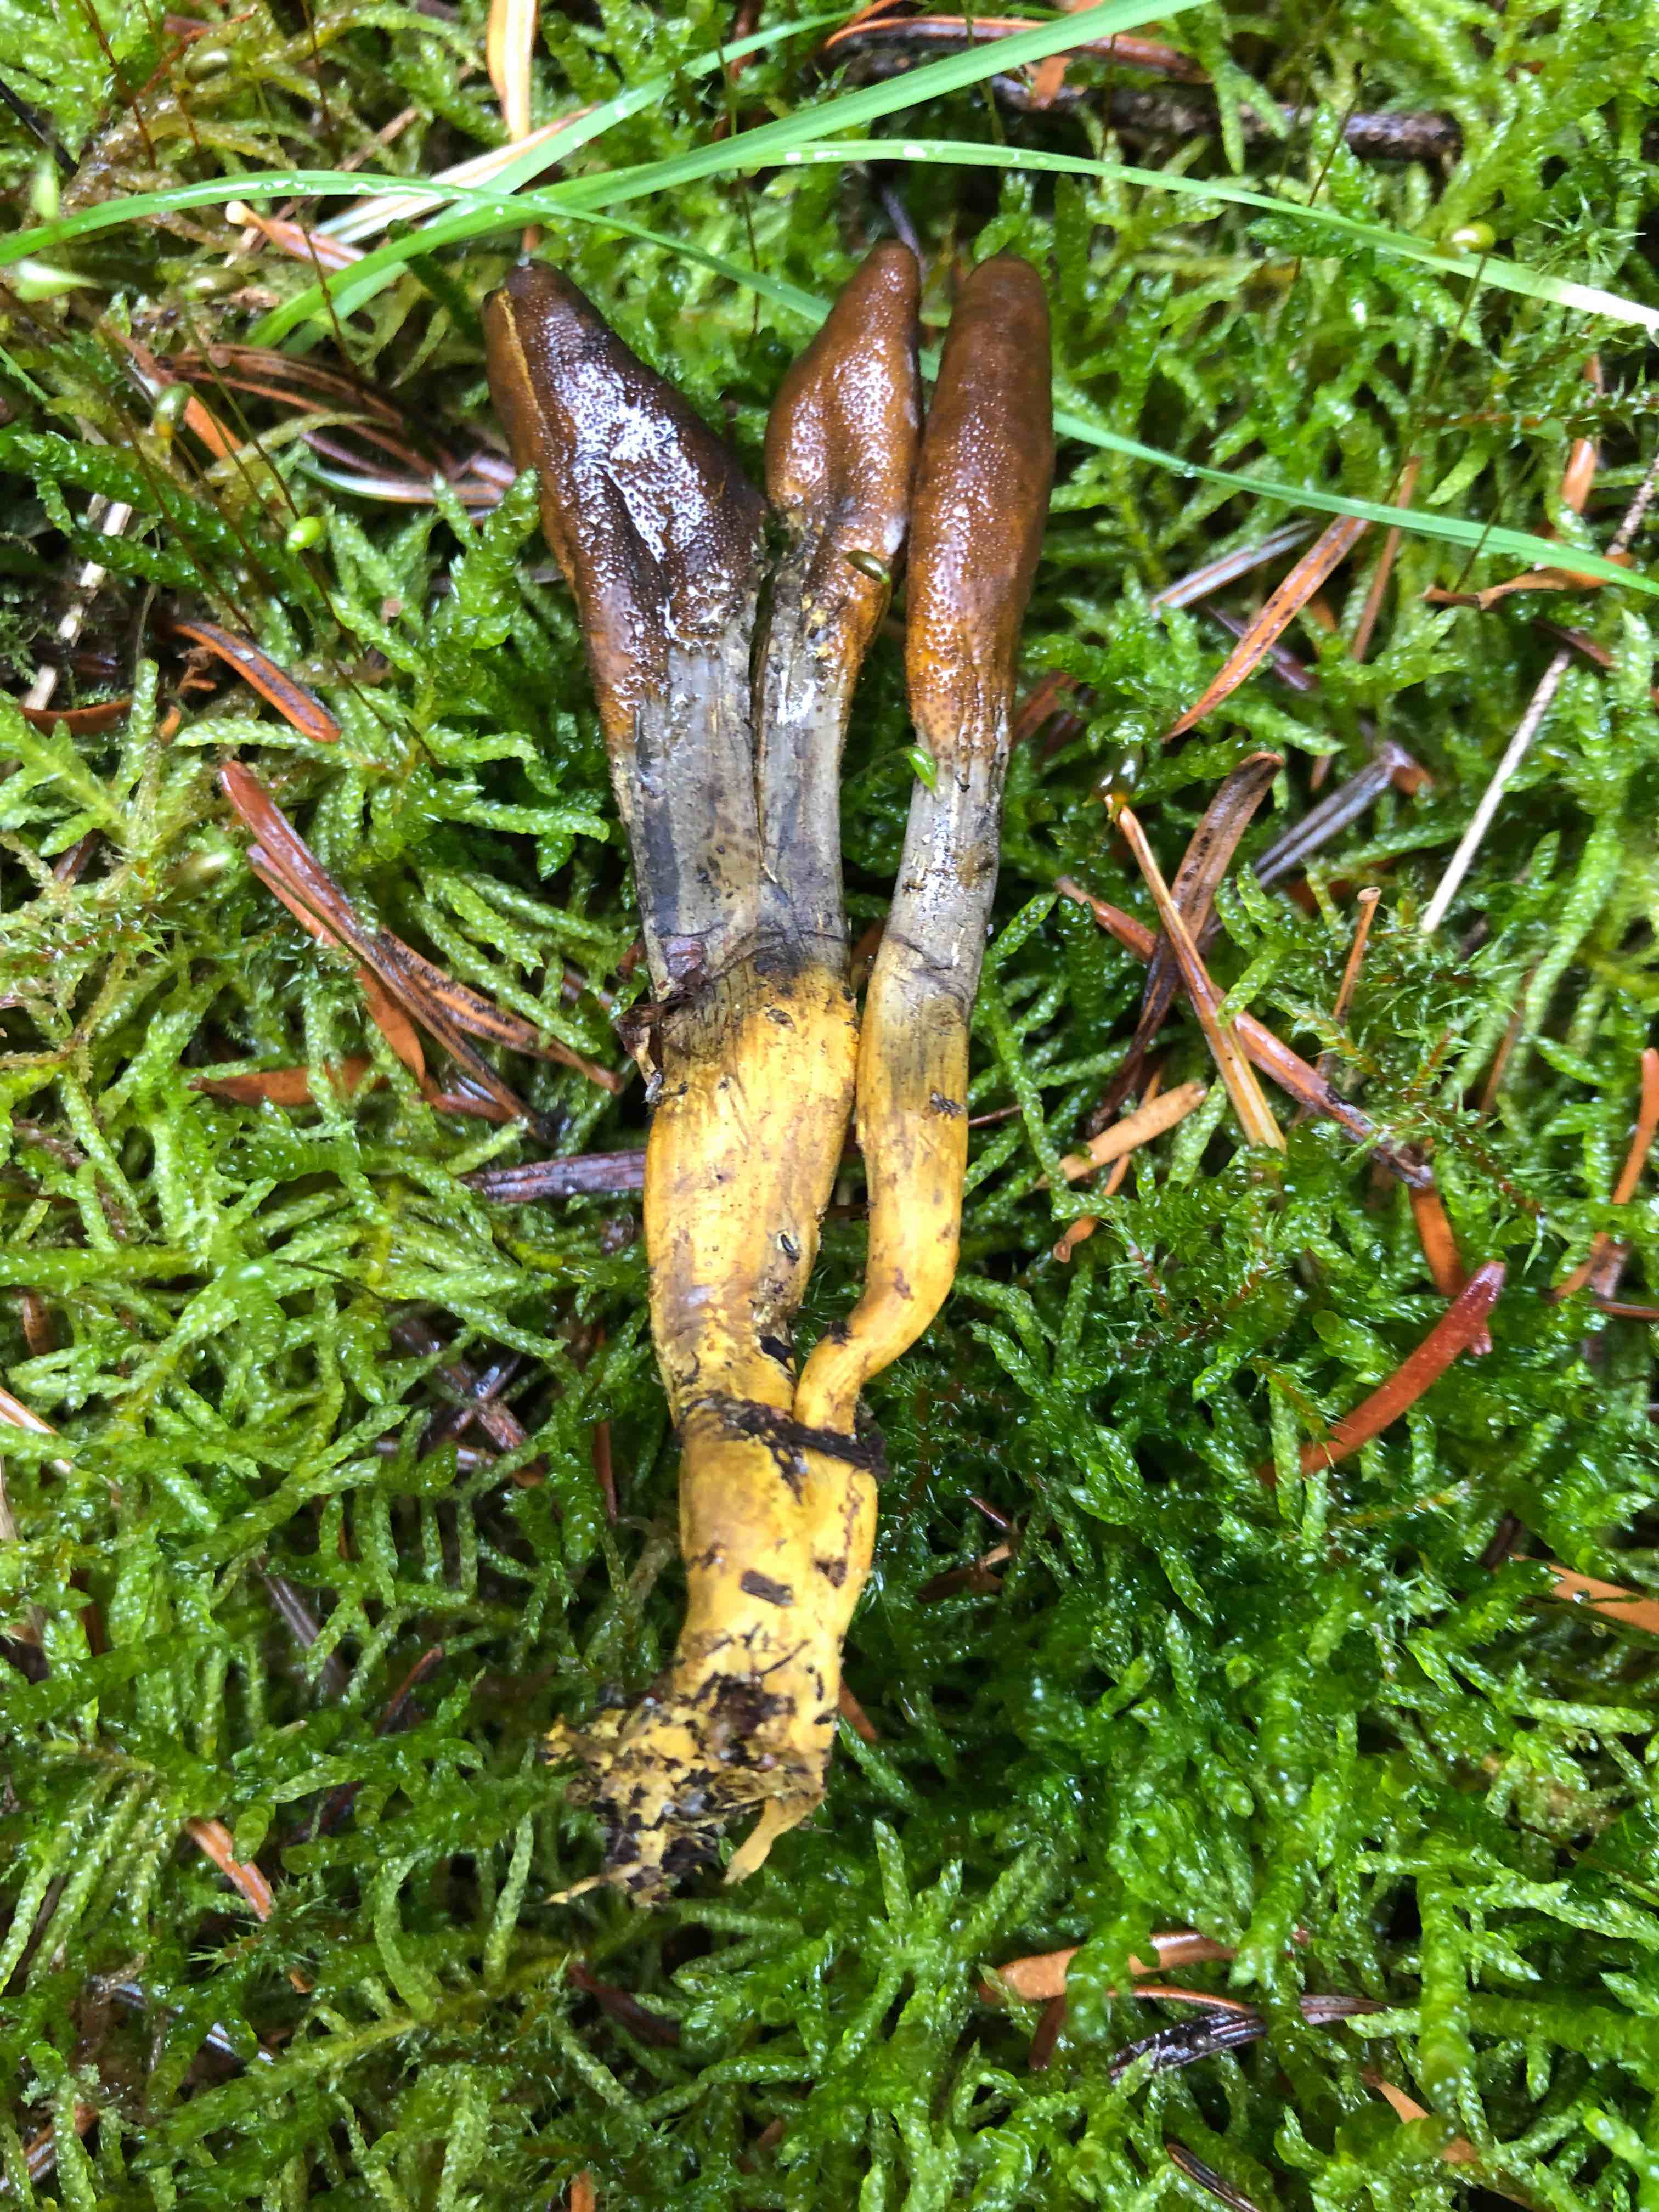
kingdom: Fungi
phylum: Ascomycota
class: Sordariomycetes
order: Hypocreales
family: Ophiocordycipitaceae
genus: Tolypocladium
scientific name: Tolypocladium ophioglossoides
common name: slank snyltekølle
